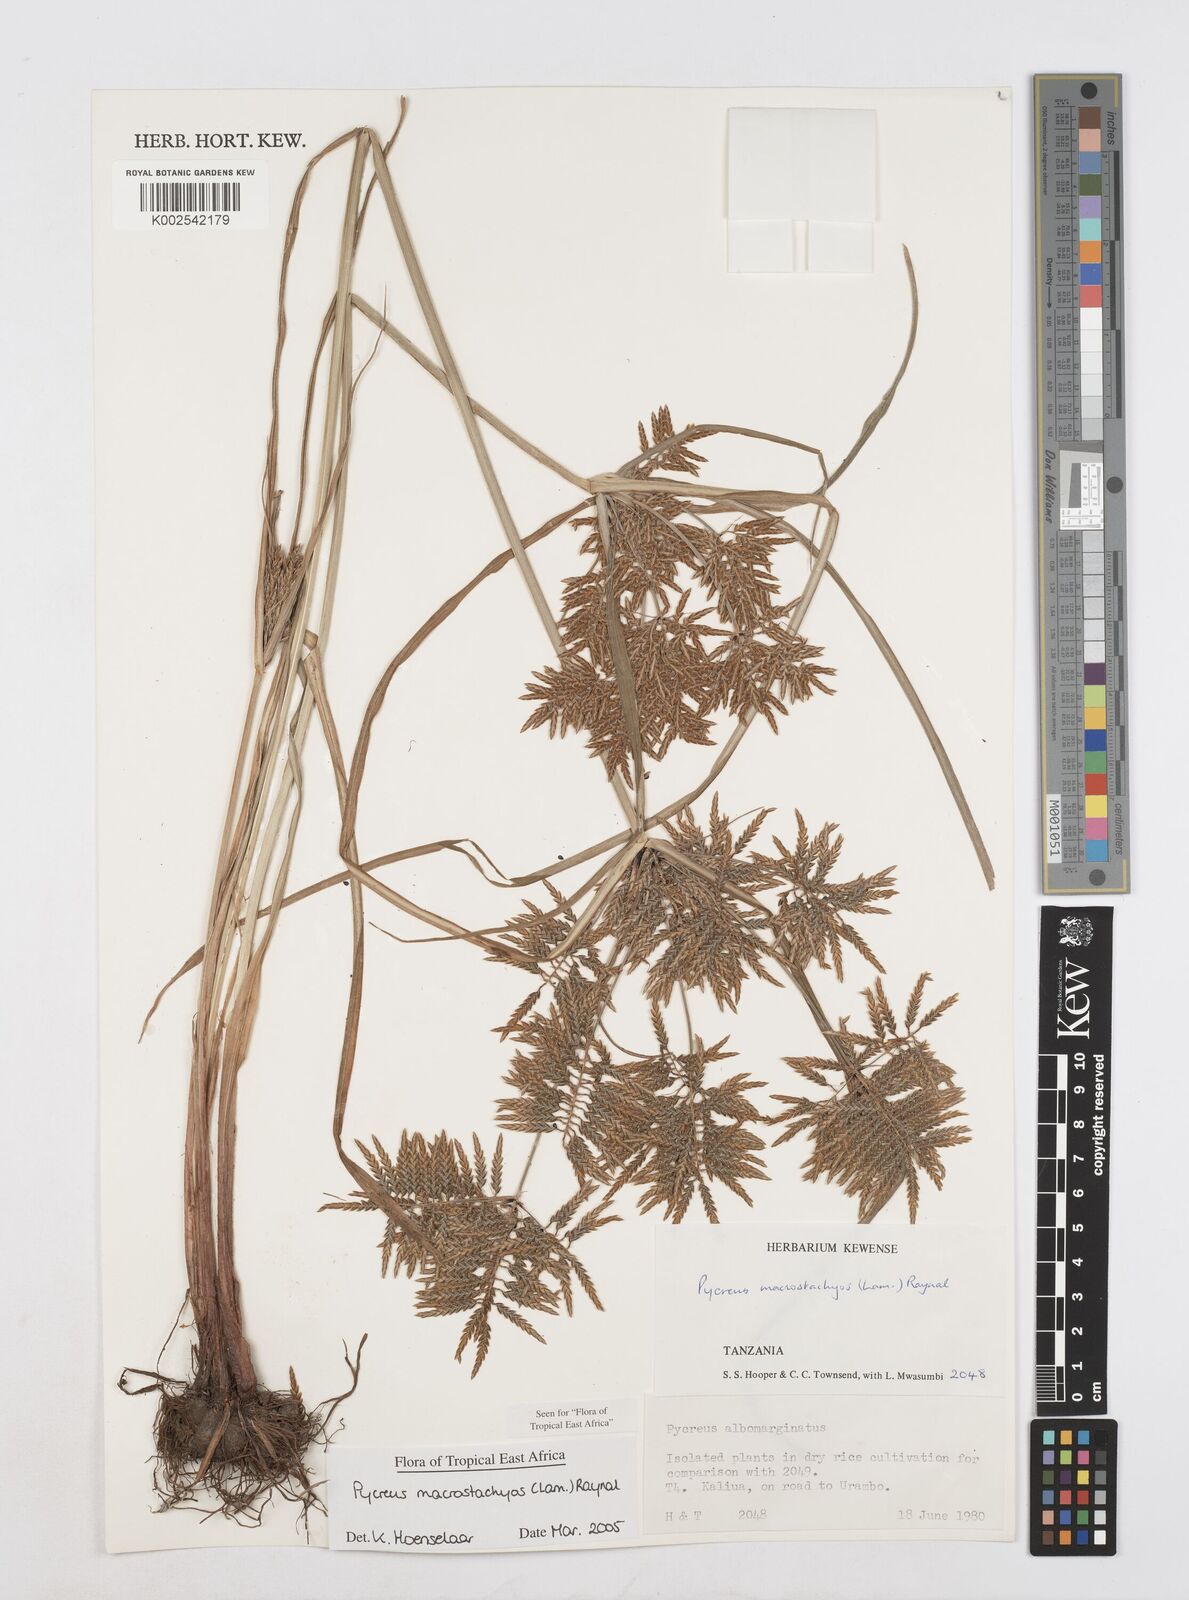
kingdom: Plantae
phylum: Tracheophyta
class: Liliopsida
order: Poales
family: Cyperaceae
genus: Cyperus
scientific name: Cyperus macrostachyos
